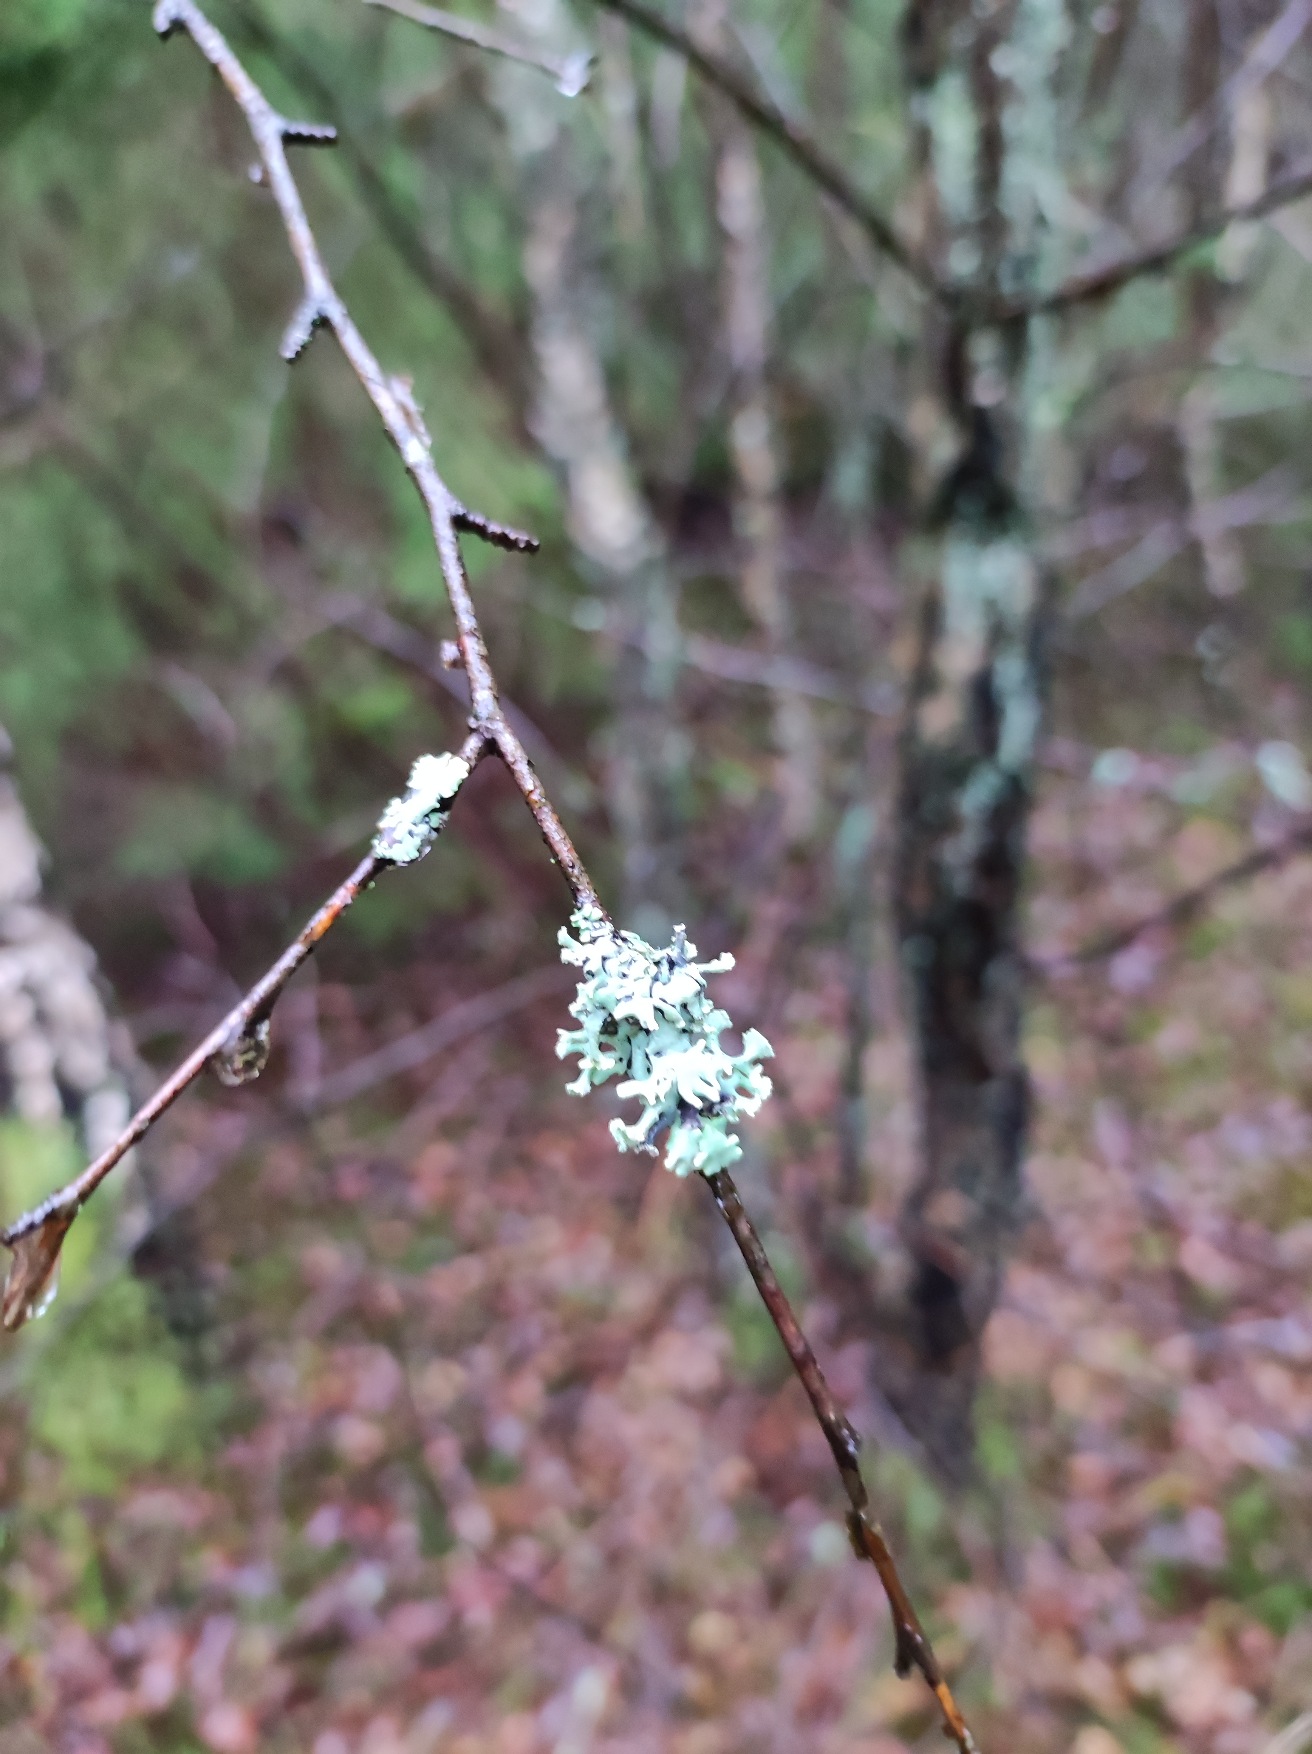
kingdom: Fungi
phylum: Ascomycota
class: Lecanoromycetes
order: Lecanorales
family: Parmeliaceae
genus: Hypogymnia
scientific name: Hypogymnia physodes
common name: Almindelig kvistlav
